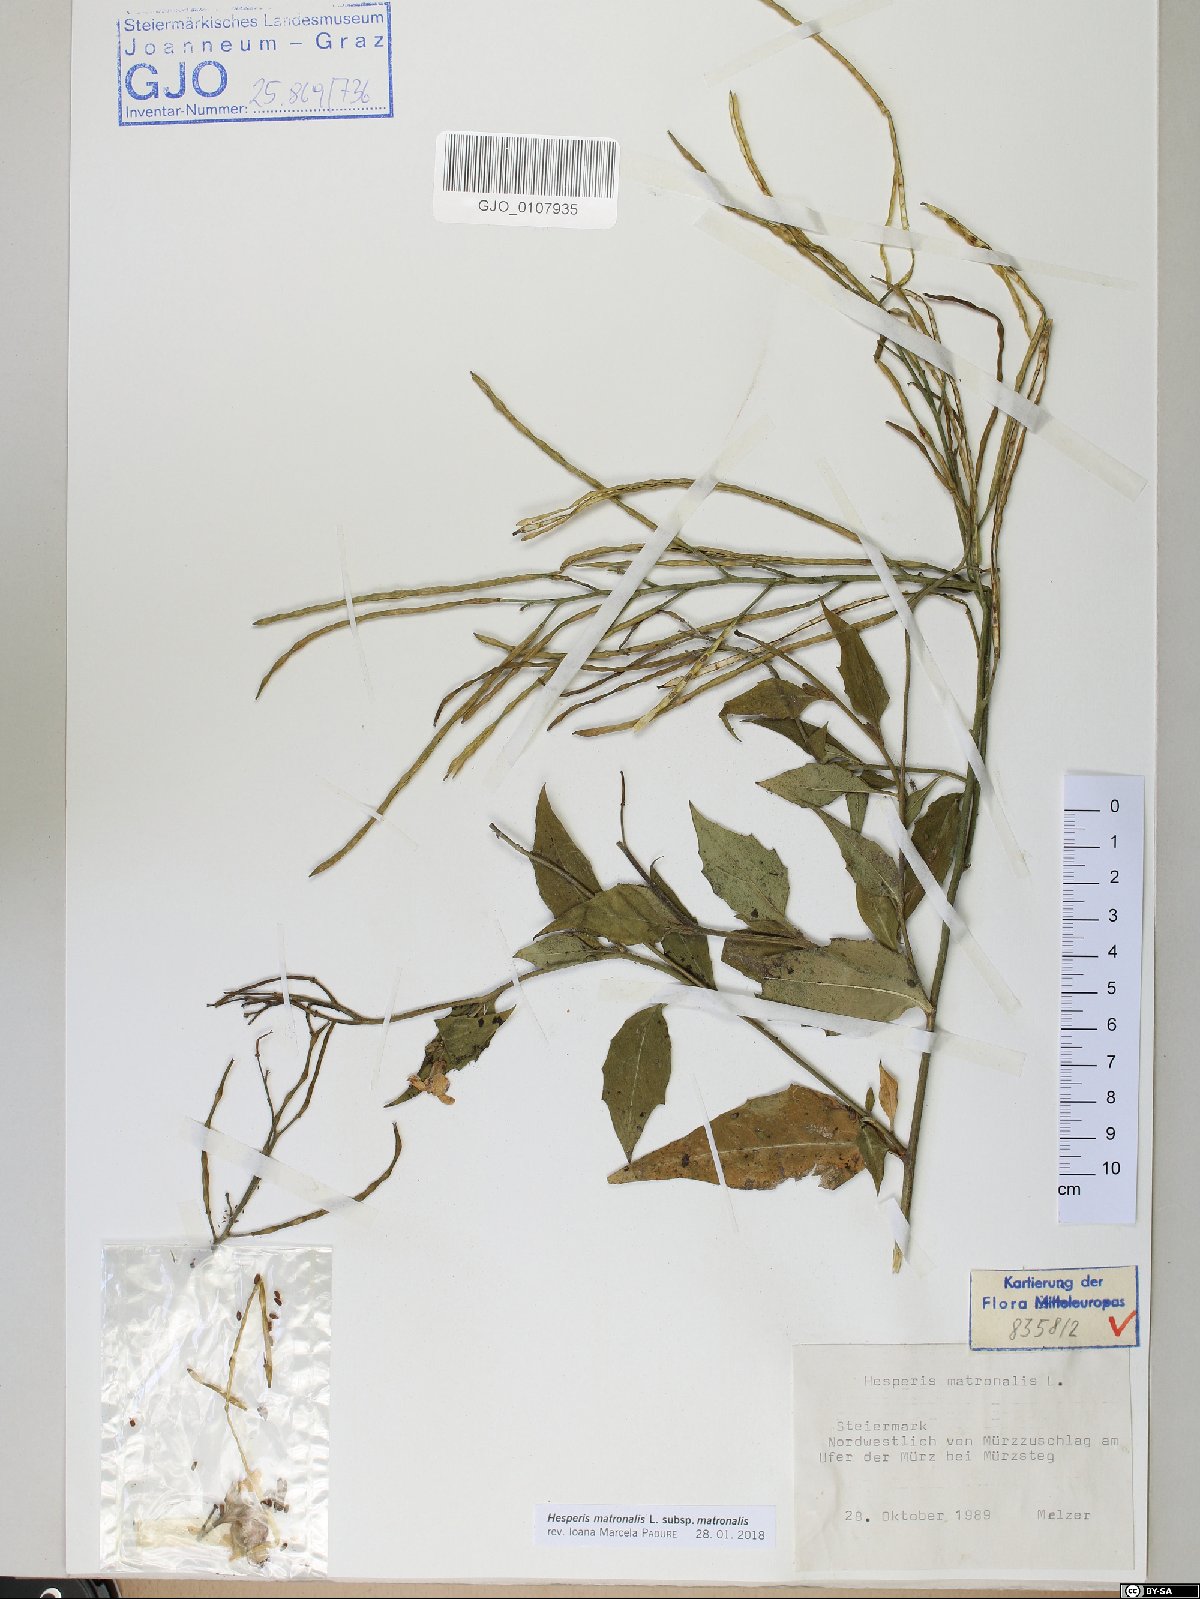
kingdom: Plantae
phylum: Tracheophyta
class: Magnoliopsida
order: Brassicales
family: Brassicaceae
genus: Hesperis
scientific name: Hesperis matronalis
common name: Dame's-violet
